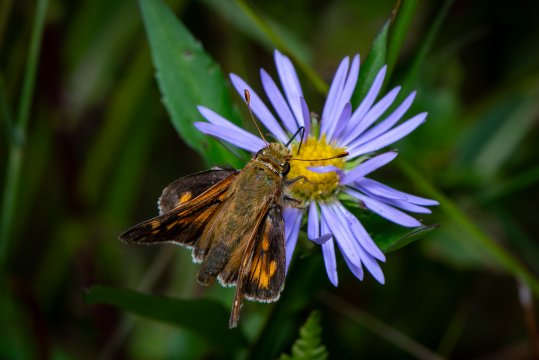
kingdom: Animalia
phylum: Arthropoda
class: Insecta
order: Lepidoptera
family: Hesperiidae
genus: Hesperia
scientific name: Hesperia leonardus
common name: Leonard's Skipper
